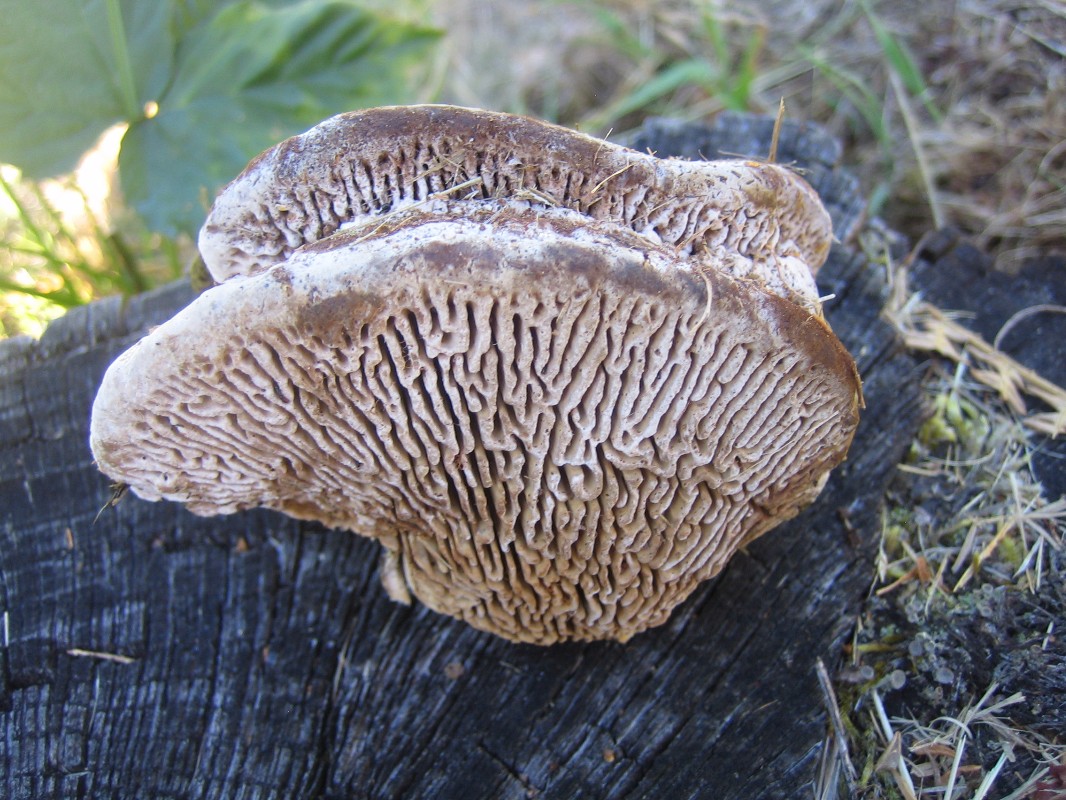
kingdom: Fungi
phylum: Basidiomycota
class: Agaricomycetes
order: Polyporales
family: Fomitopsidaceae
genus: Daedalea
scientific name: Daedalea quercina
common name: ege-labyrintsvamp
